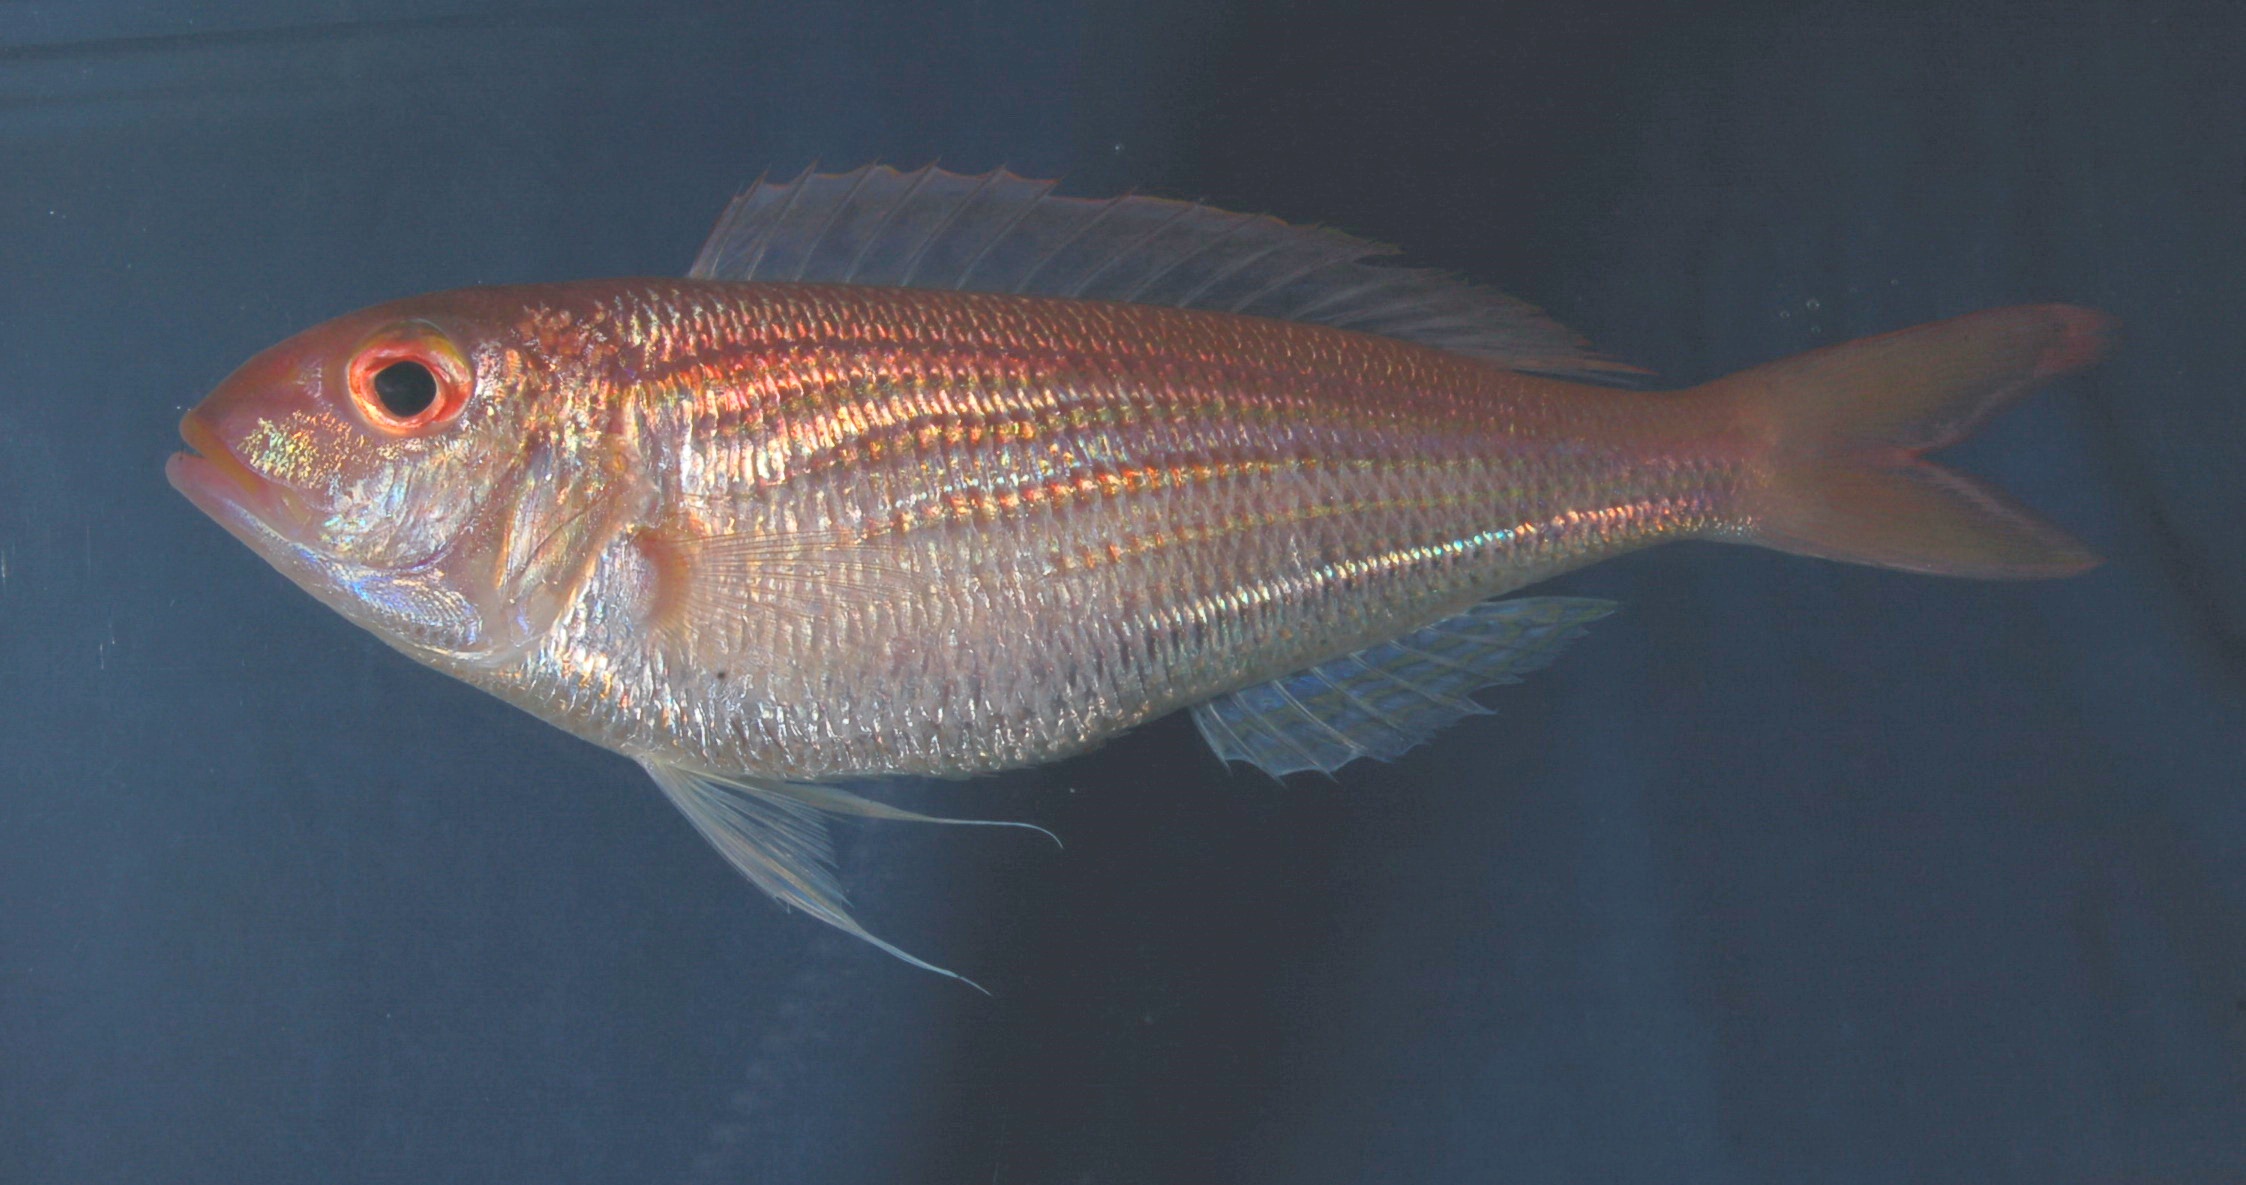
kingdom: Animalia
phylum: Chordata
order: Perciformes
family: Nemipteridae
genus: Nemipterus
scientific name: Nemipterus bipunctatus
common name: Delagoa threadfin bream
